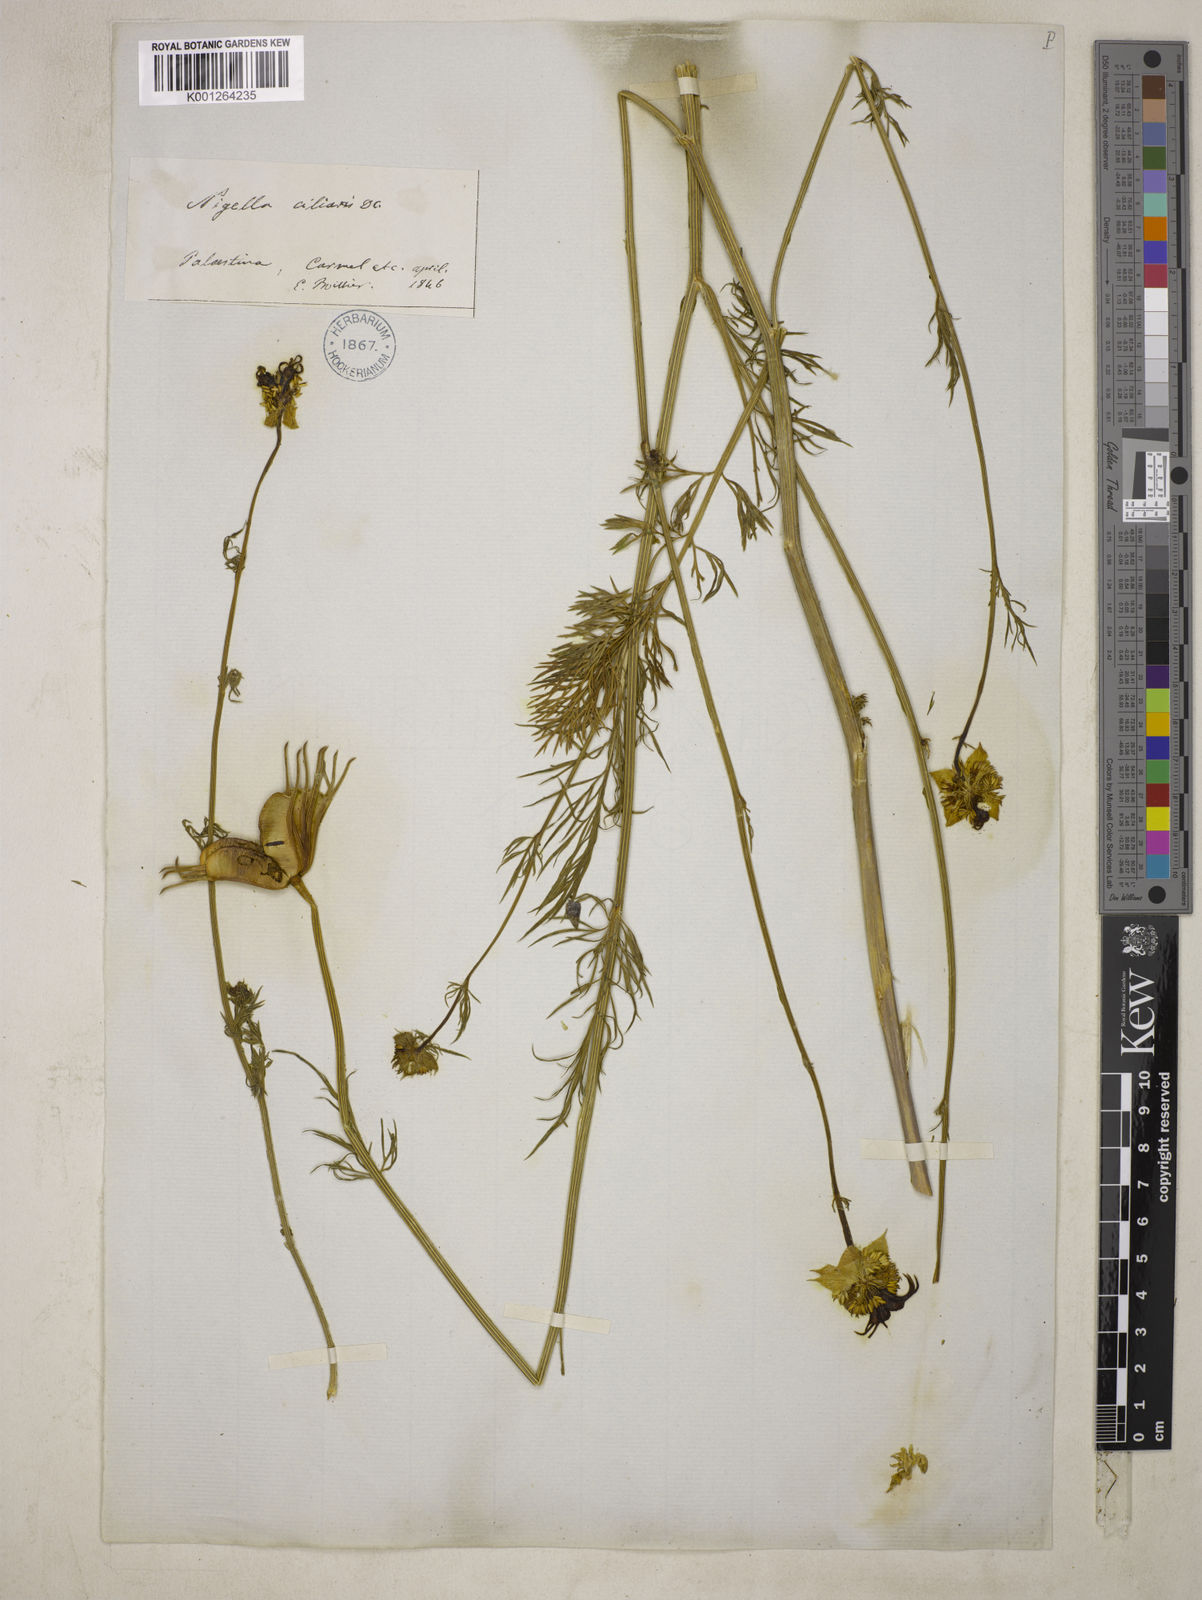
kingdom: Plantae
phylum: Tracheophyta
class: Magnoliopsida
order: Ranunculales
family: Ranunculaceae
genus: Nigella
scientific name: Nigella ciliaris
